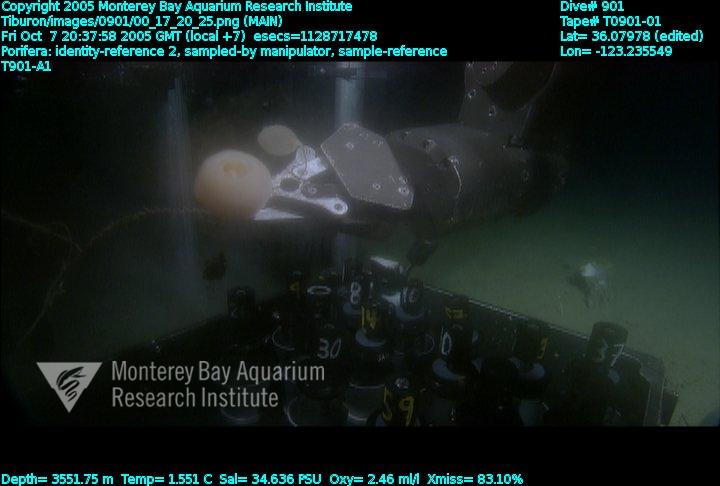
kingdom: Animalia
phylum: Porifera
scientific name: Porifera
